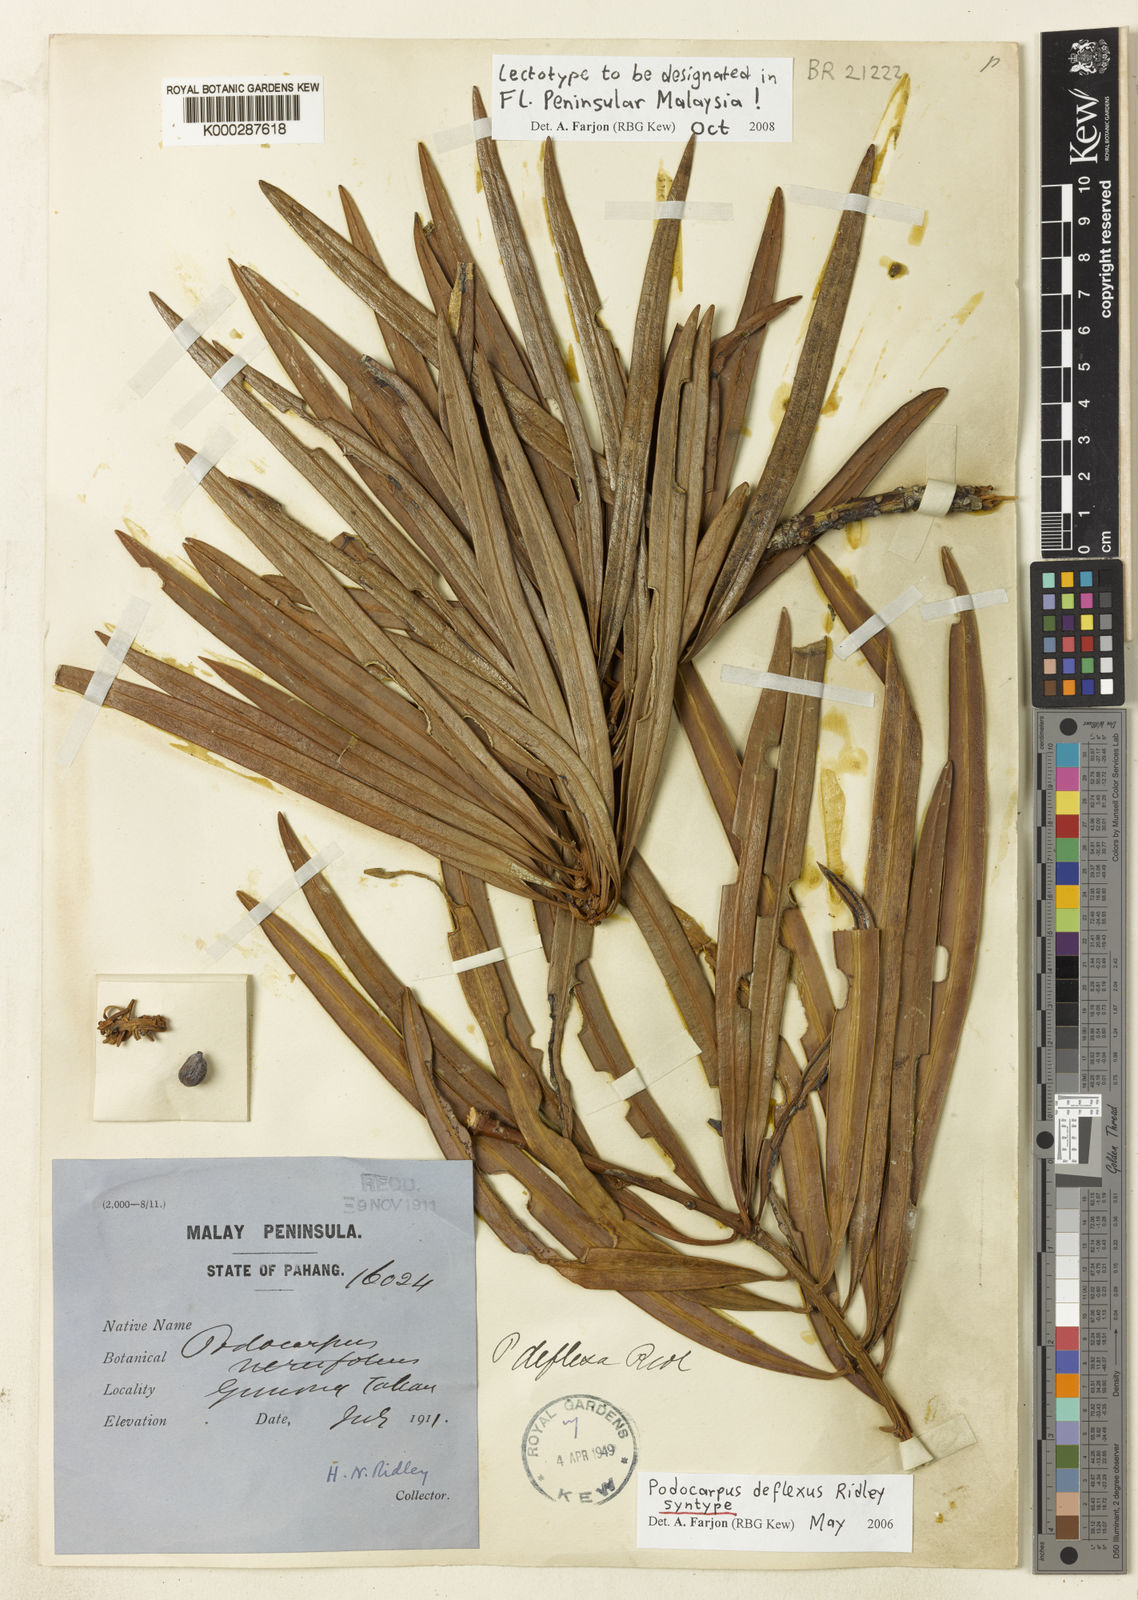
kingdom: Plantae
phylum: Tracheophyta
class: Pinopsida
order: Pinales
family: Podocarpaceae
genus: Podocarpus
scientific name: Podocarpus deflexus
